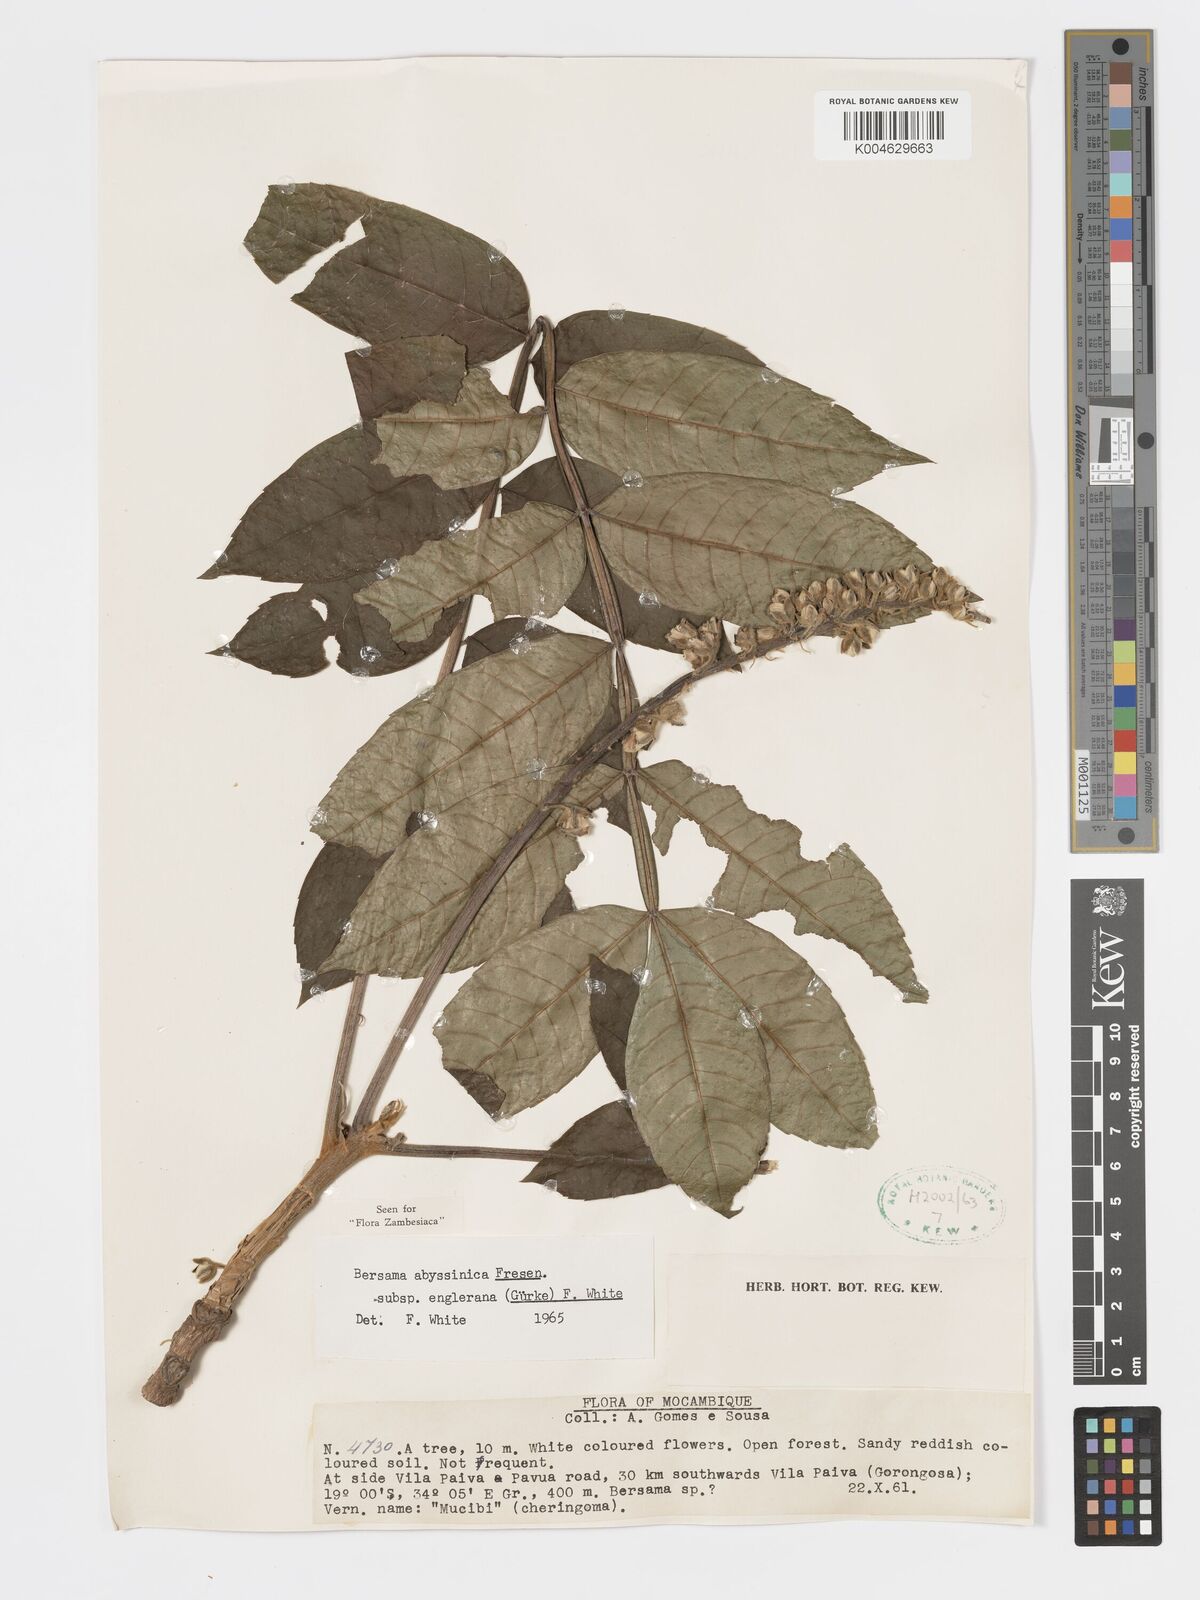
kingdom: Plantae
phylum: Tracheophyta
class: Magnoliopsida
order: Geraniales
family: Melianthaceae
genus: Bersama
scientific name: Bersama abyssinica
